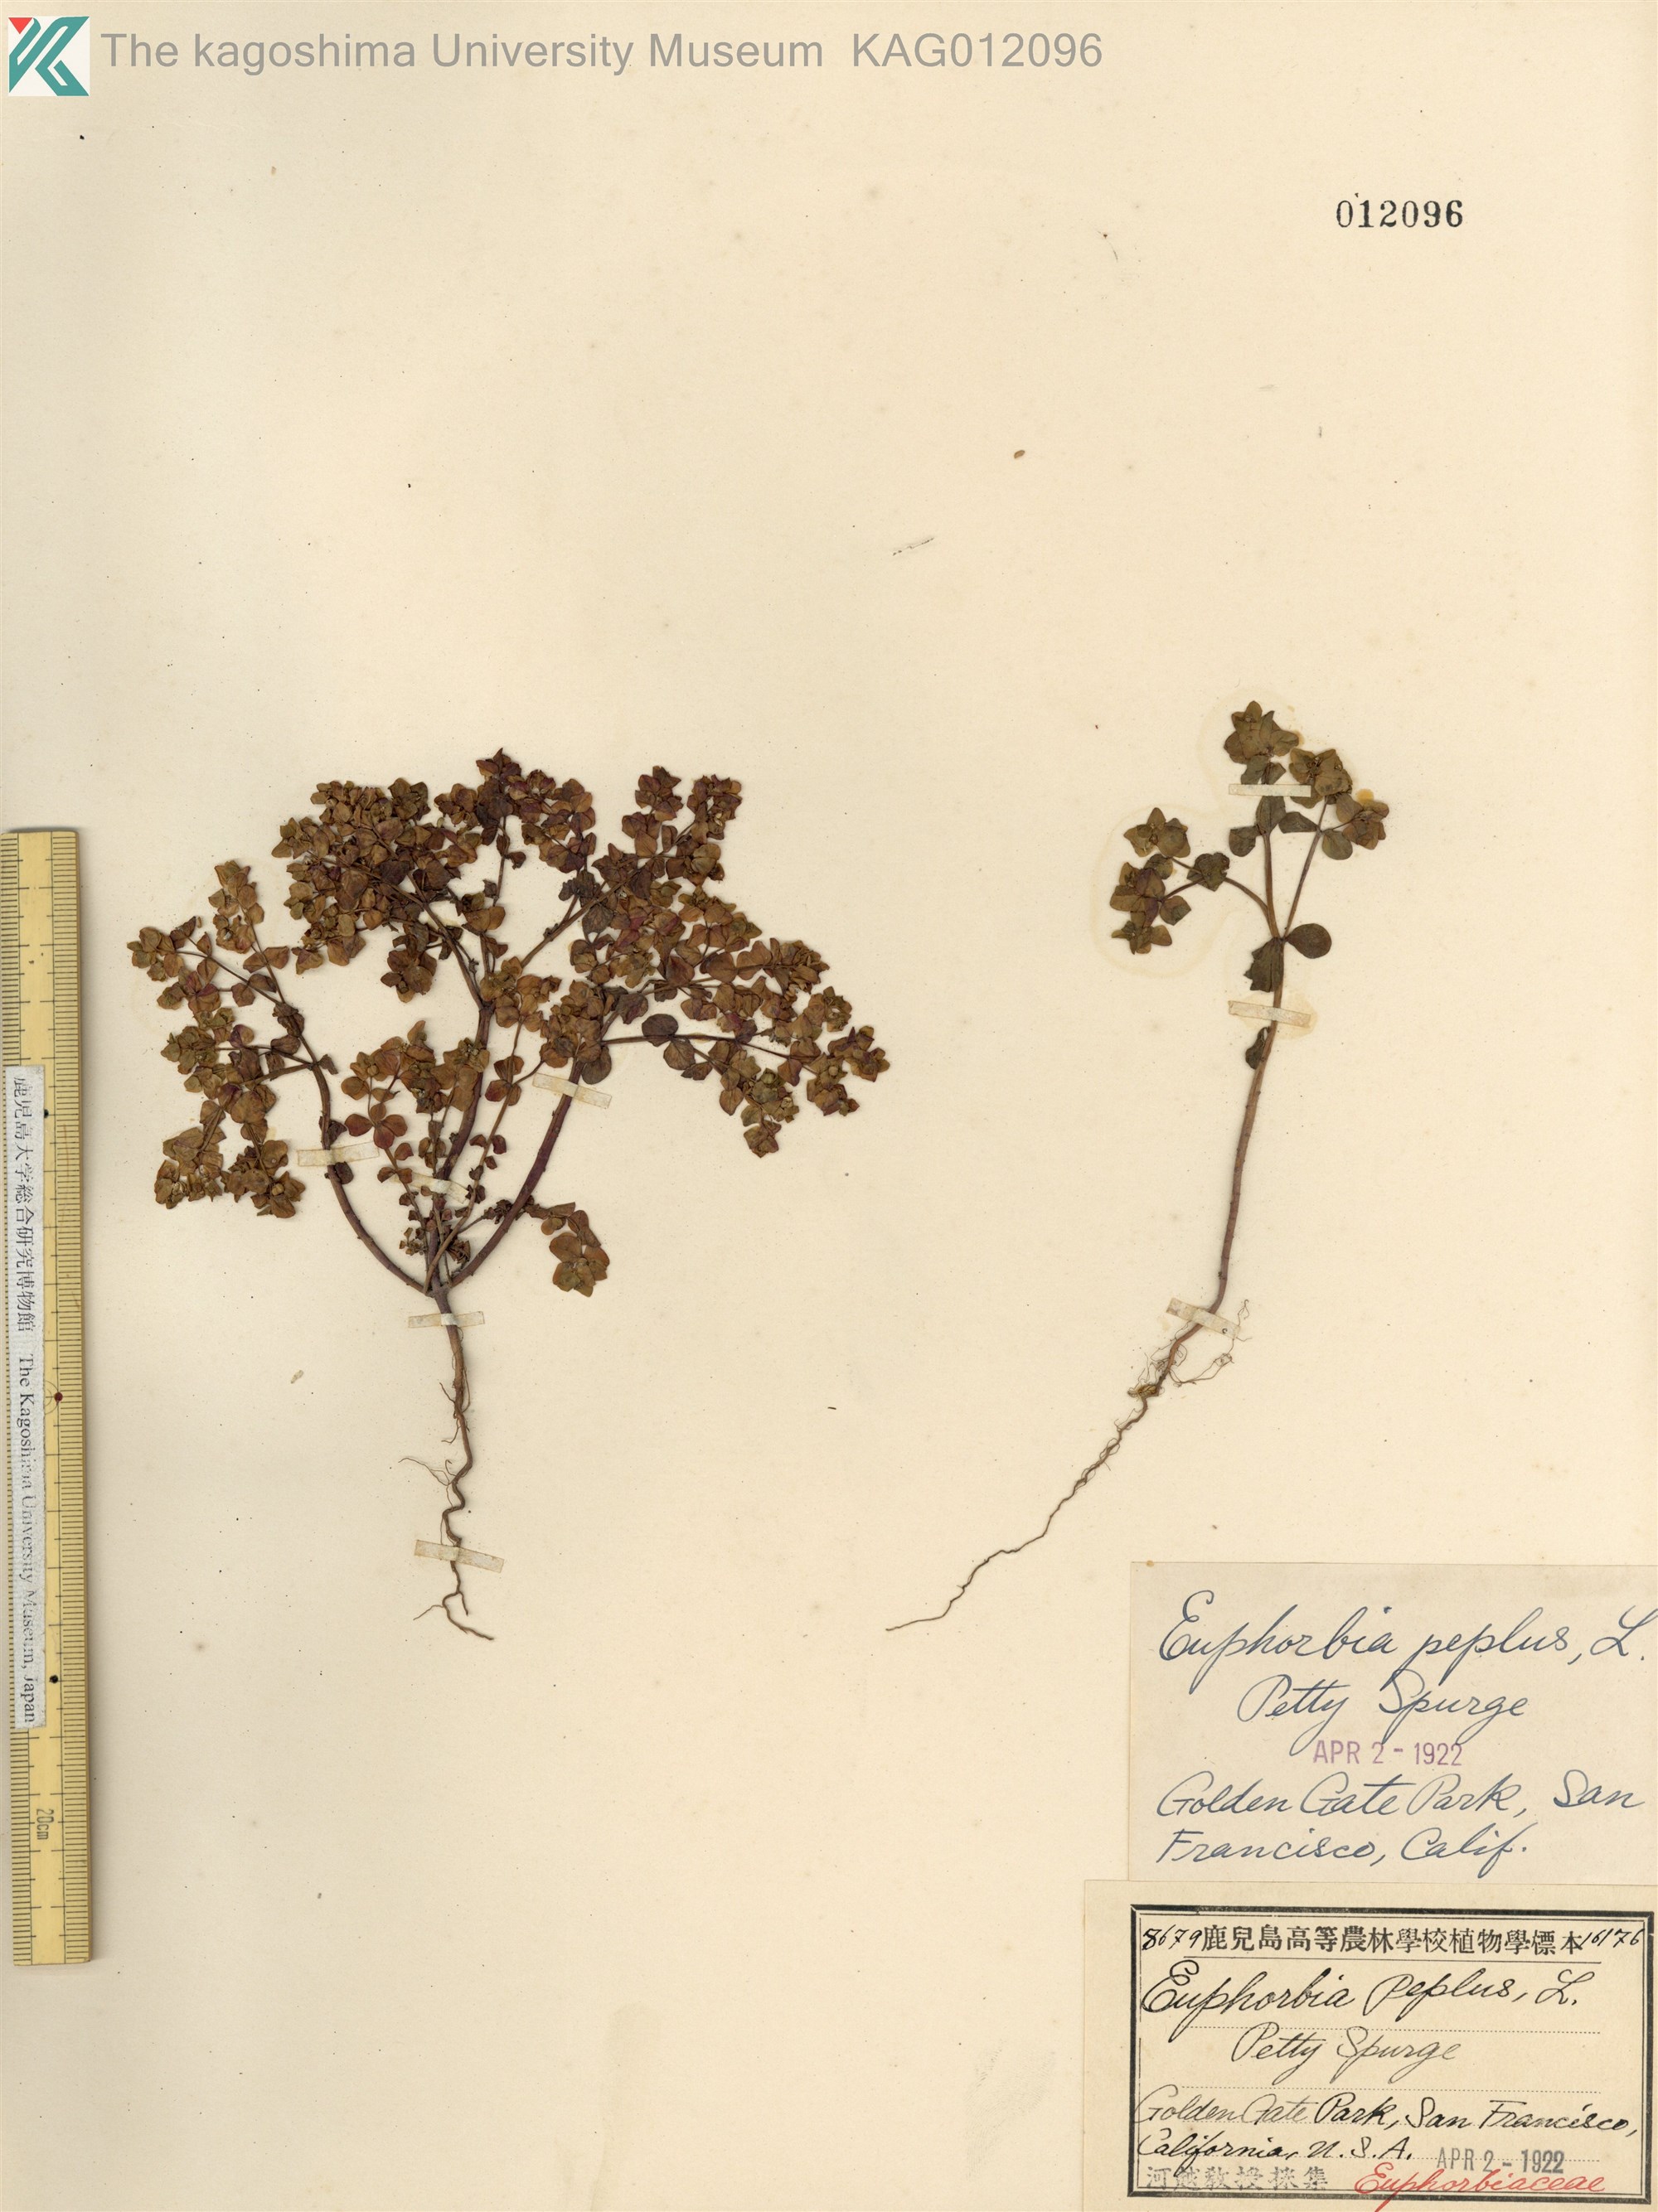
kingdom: Plantae
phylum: Tracheophyta
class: Magnoliopsida
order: Malpighiales
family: Euphorbiaceae
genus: Euphorbia
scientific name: Euphorbia peplus
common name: Petty spurge
